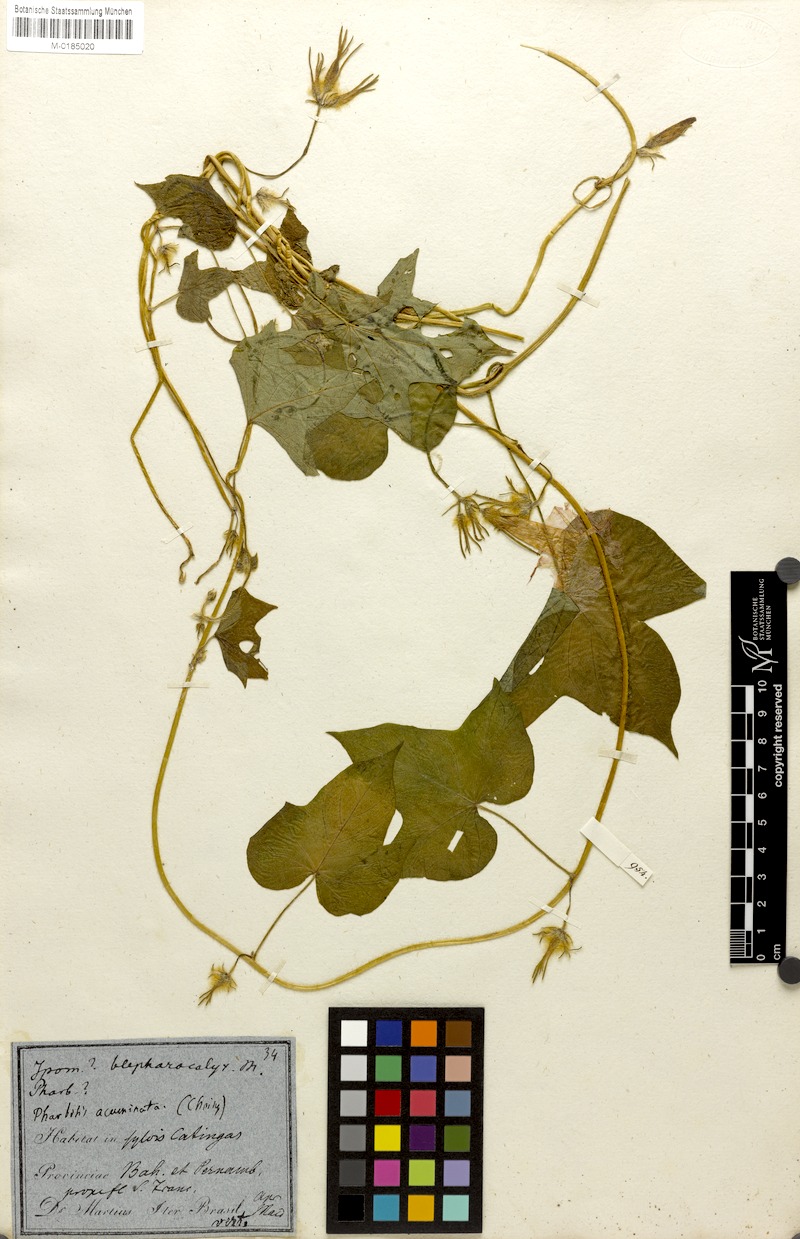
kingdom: Plantae
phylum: Tracheophyta
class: Magnoliopsida
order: Solanales
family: Convolvulaceae
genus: Ipomoea
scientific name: Ipomoea indica
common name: Blue dawnflower
